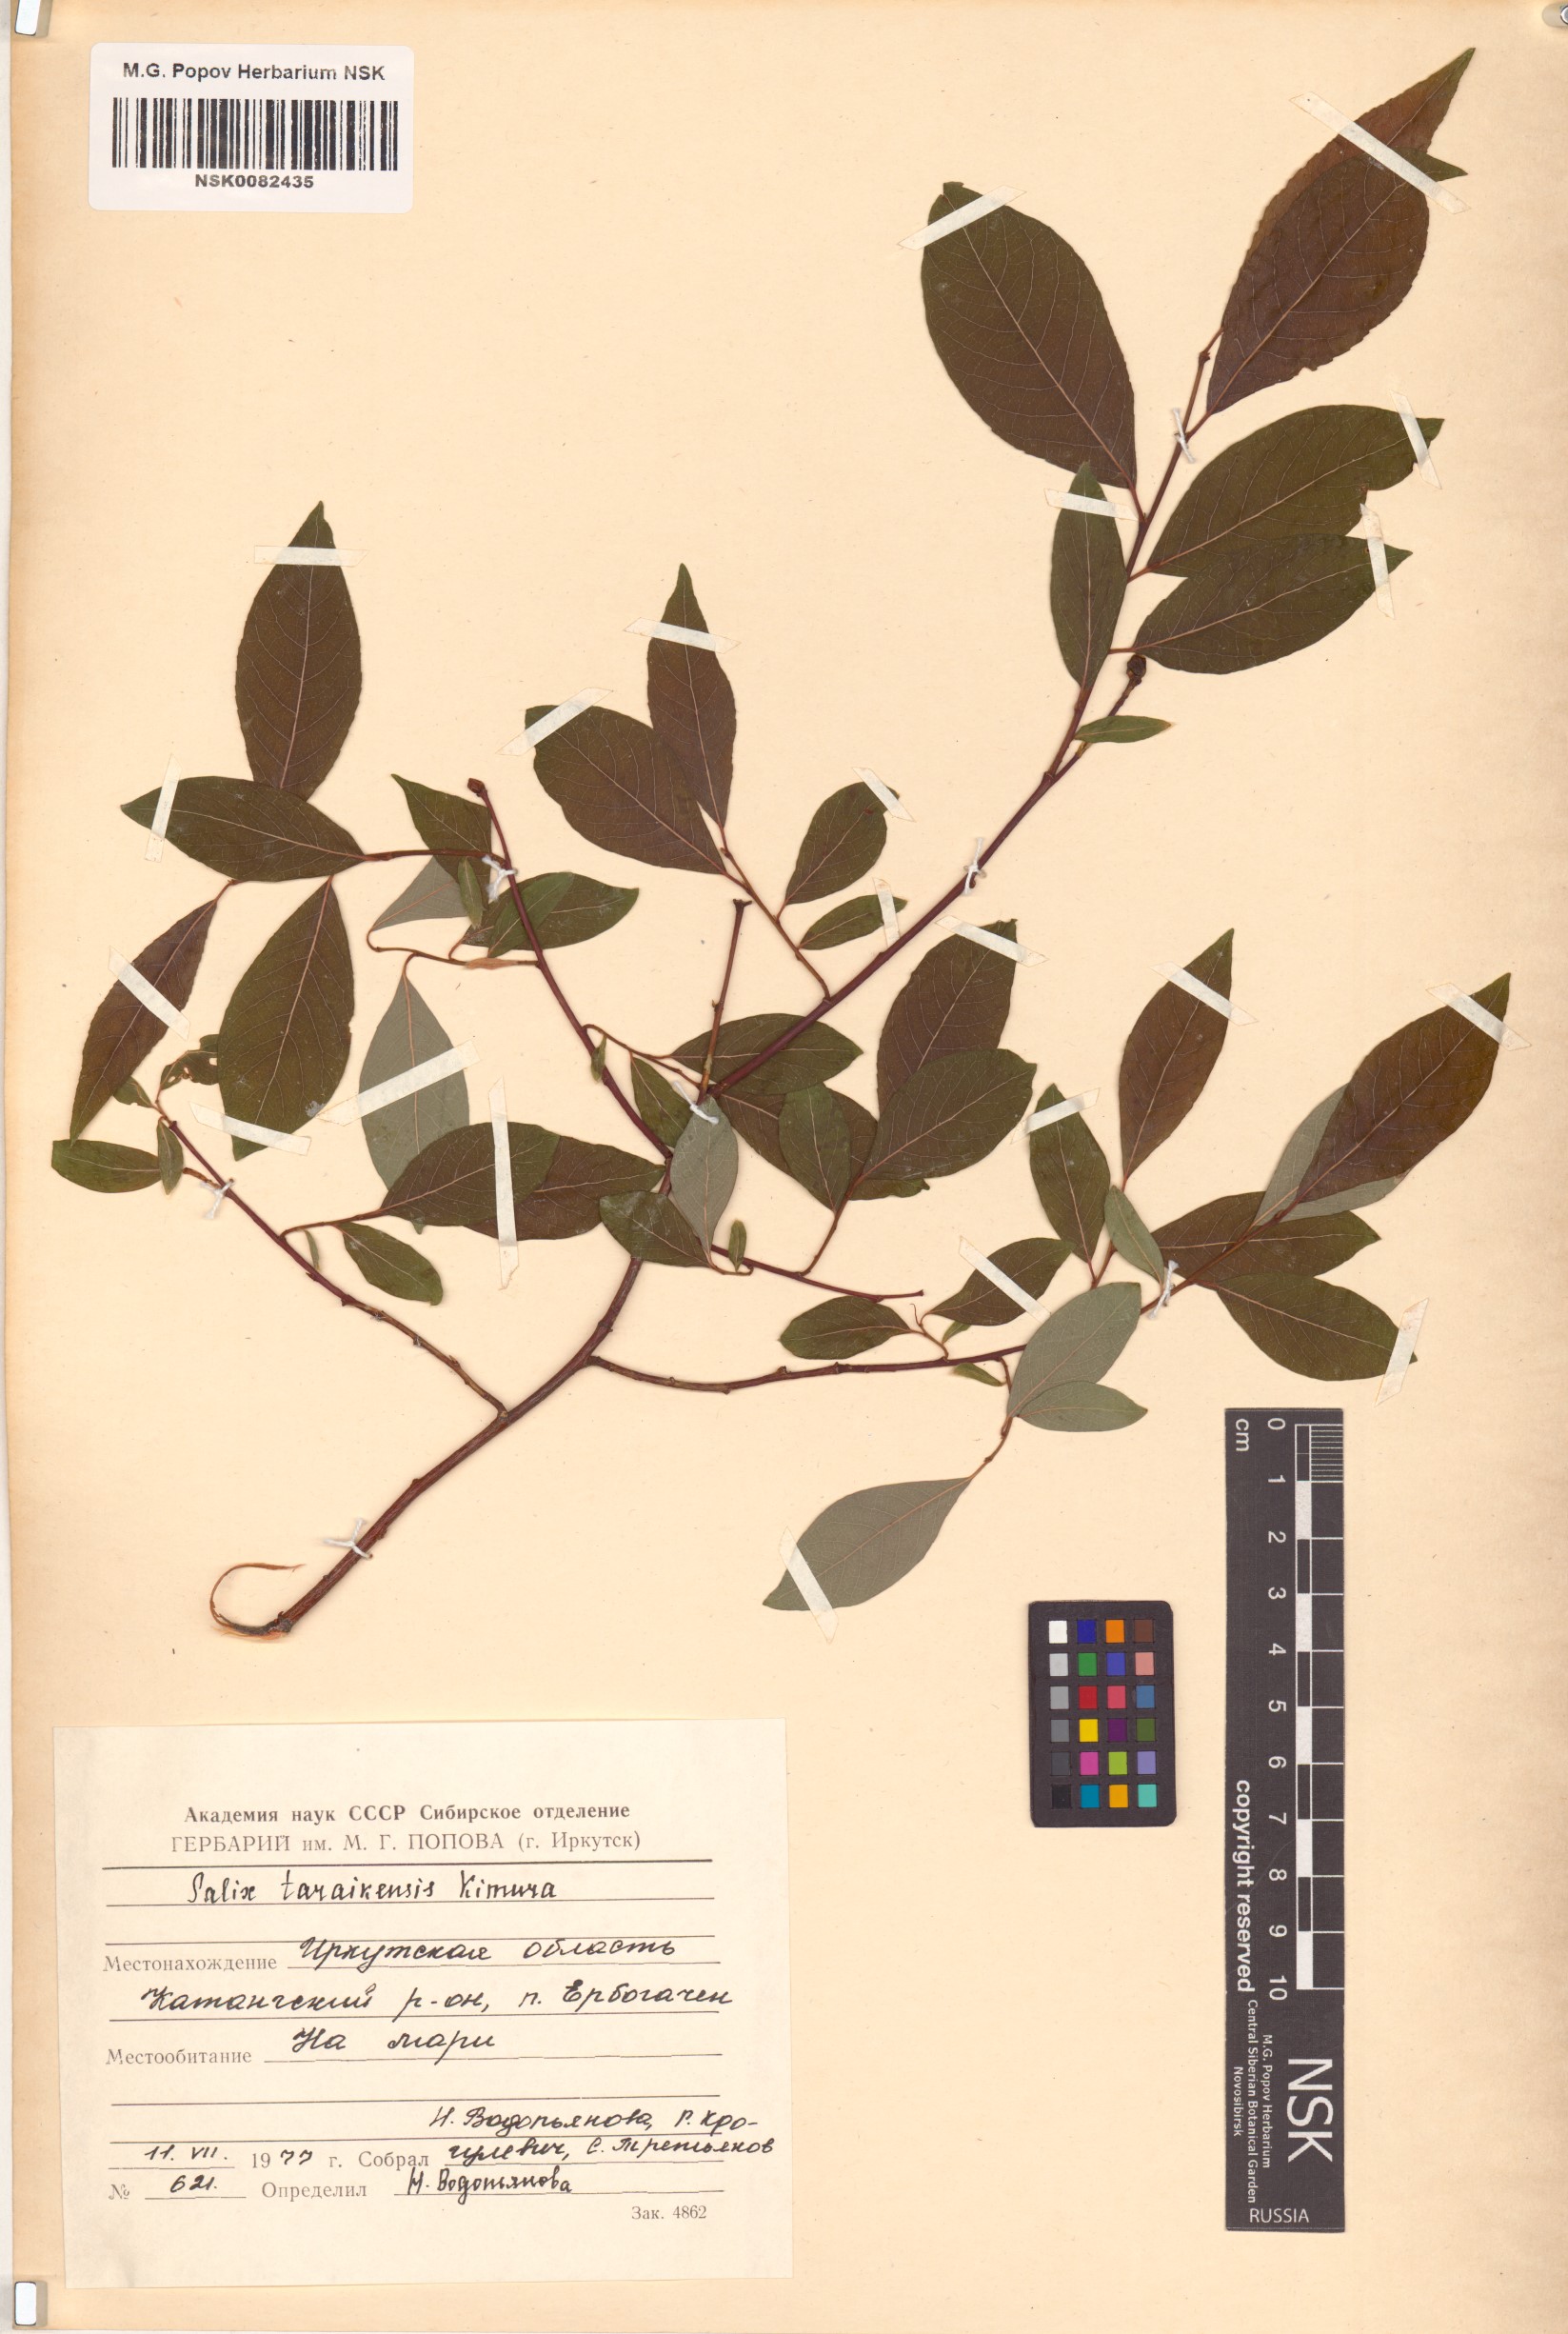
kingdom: Plantae
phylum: Tracheophyta
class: Magnoliopsida
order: Malpighiales
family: Salicaceae
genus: Salix
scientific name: Salix taraikensis
